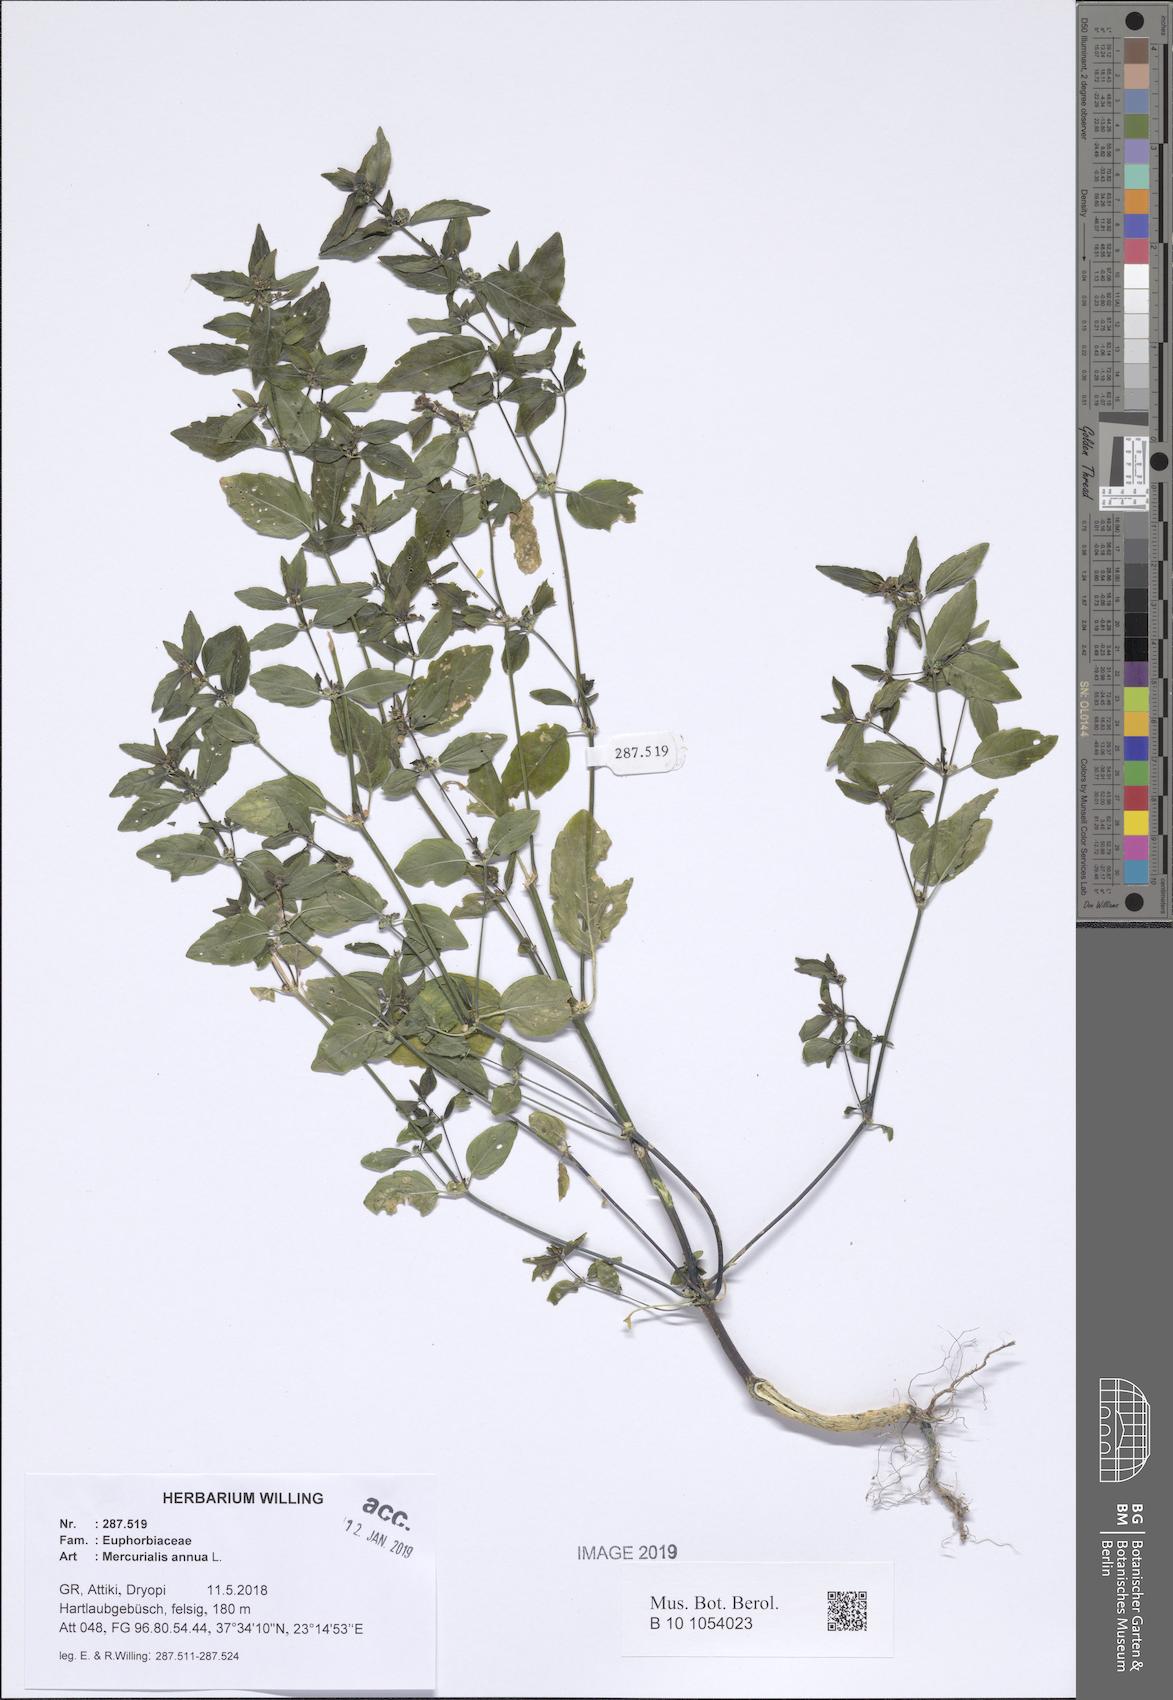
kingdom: Plantae
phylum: Tracheophyta
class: Magnoliopsida
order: Malpighiales
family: Euphorbiaceae
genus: Mercurialis
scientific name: Mercurialis annua
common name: Annual mercury
